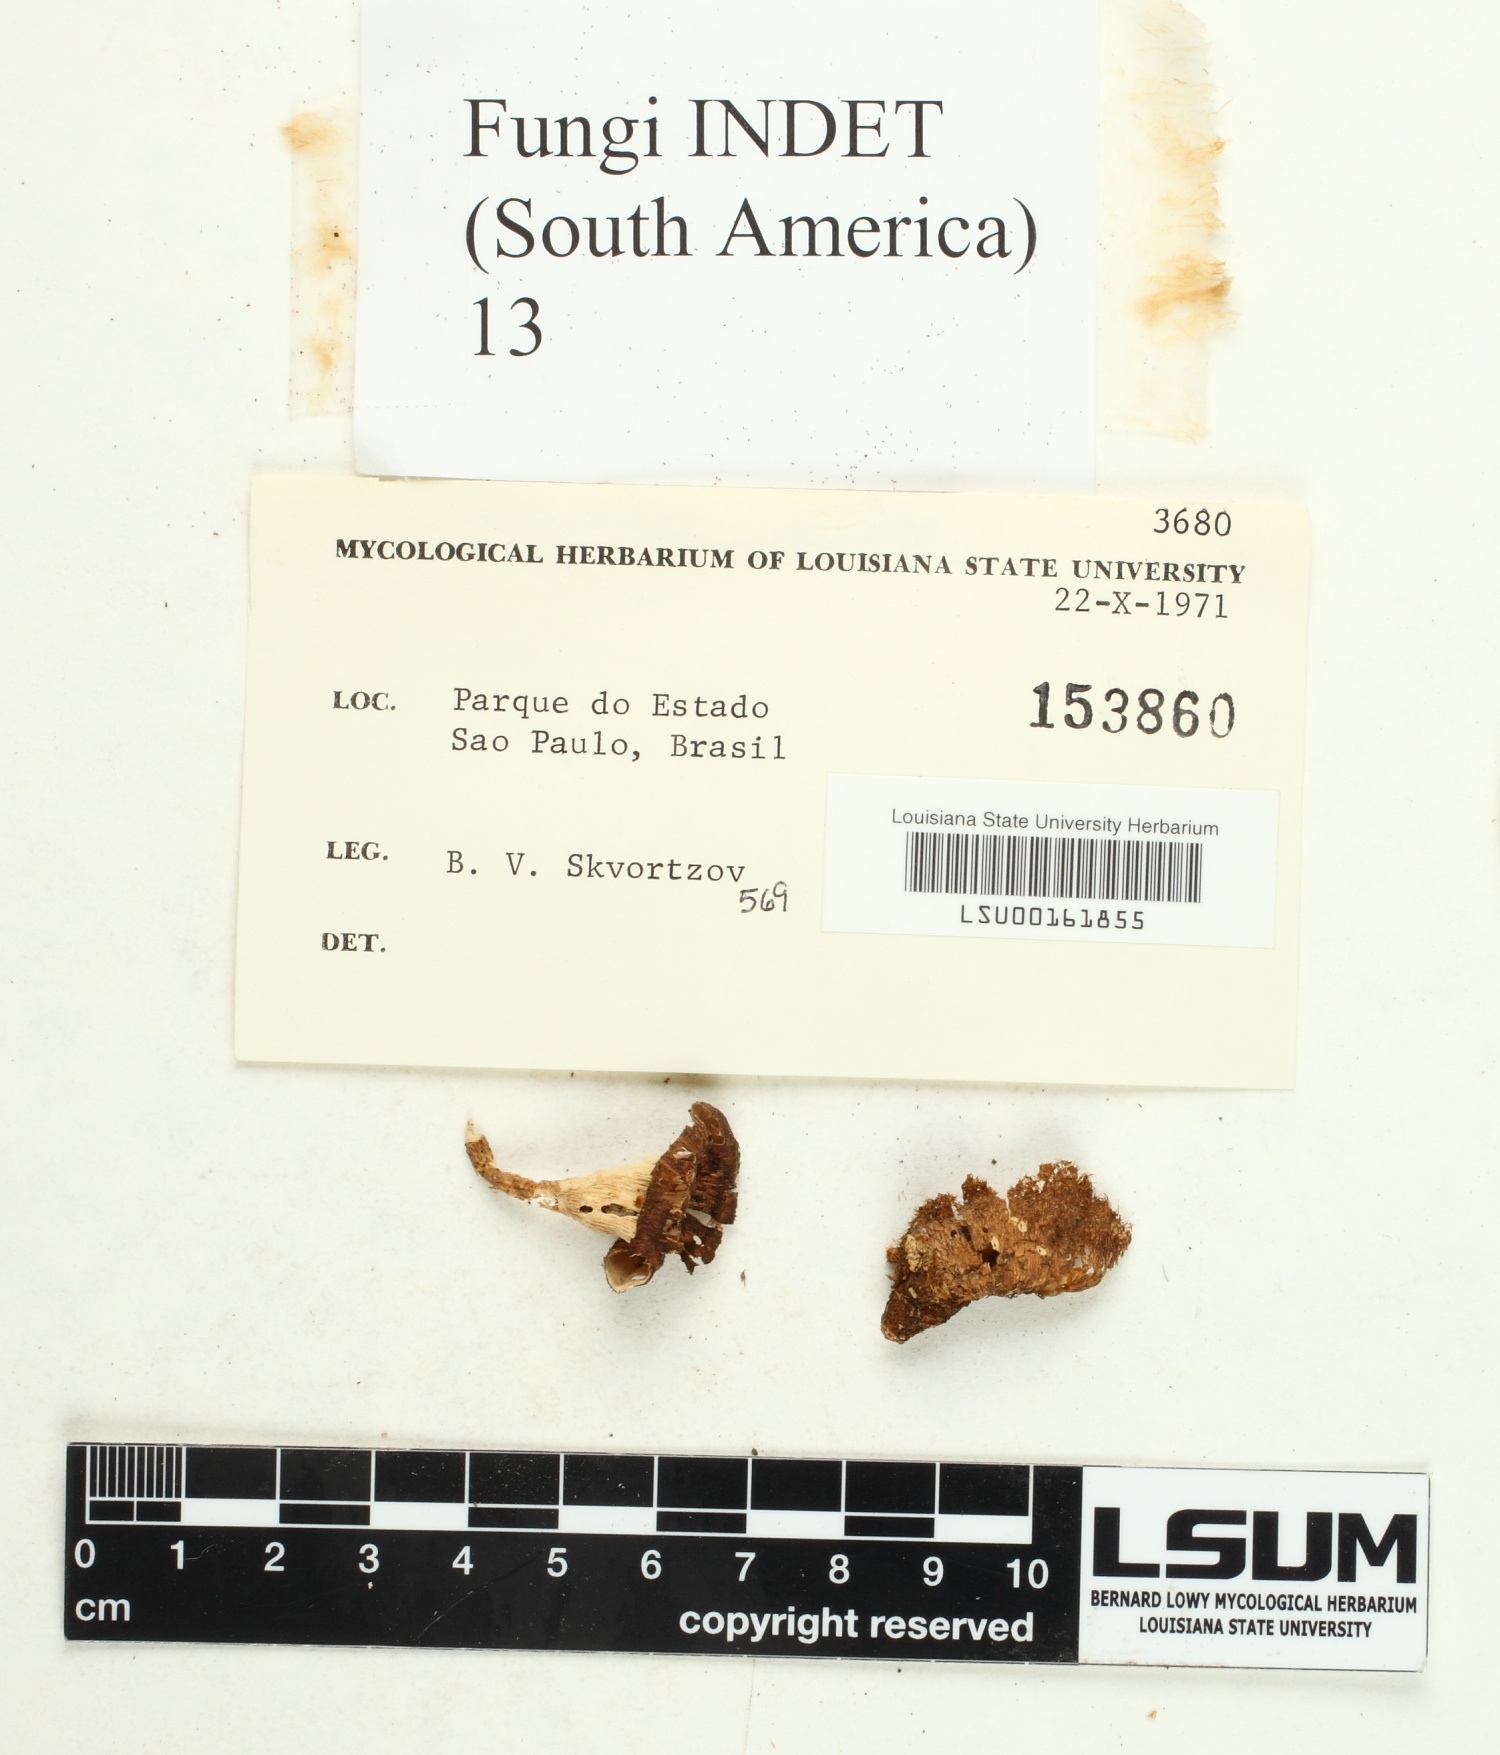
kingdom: Fungi
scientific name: Fungi
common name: Fungi
